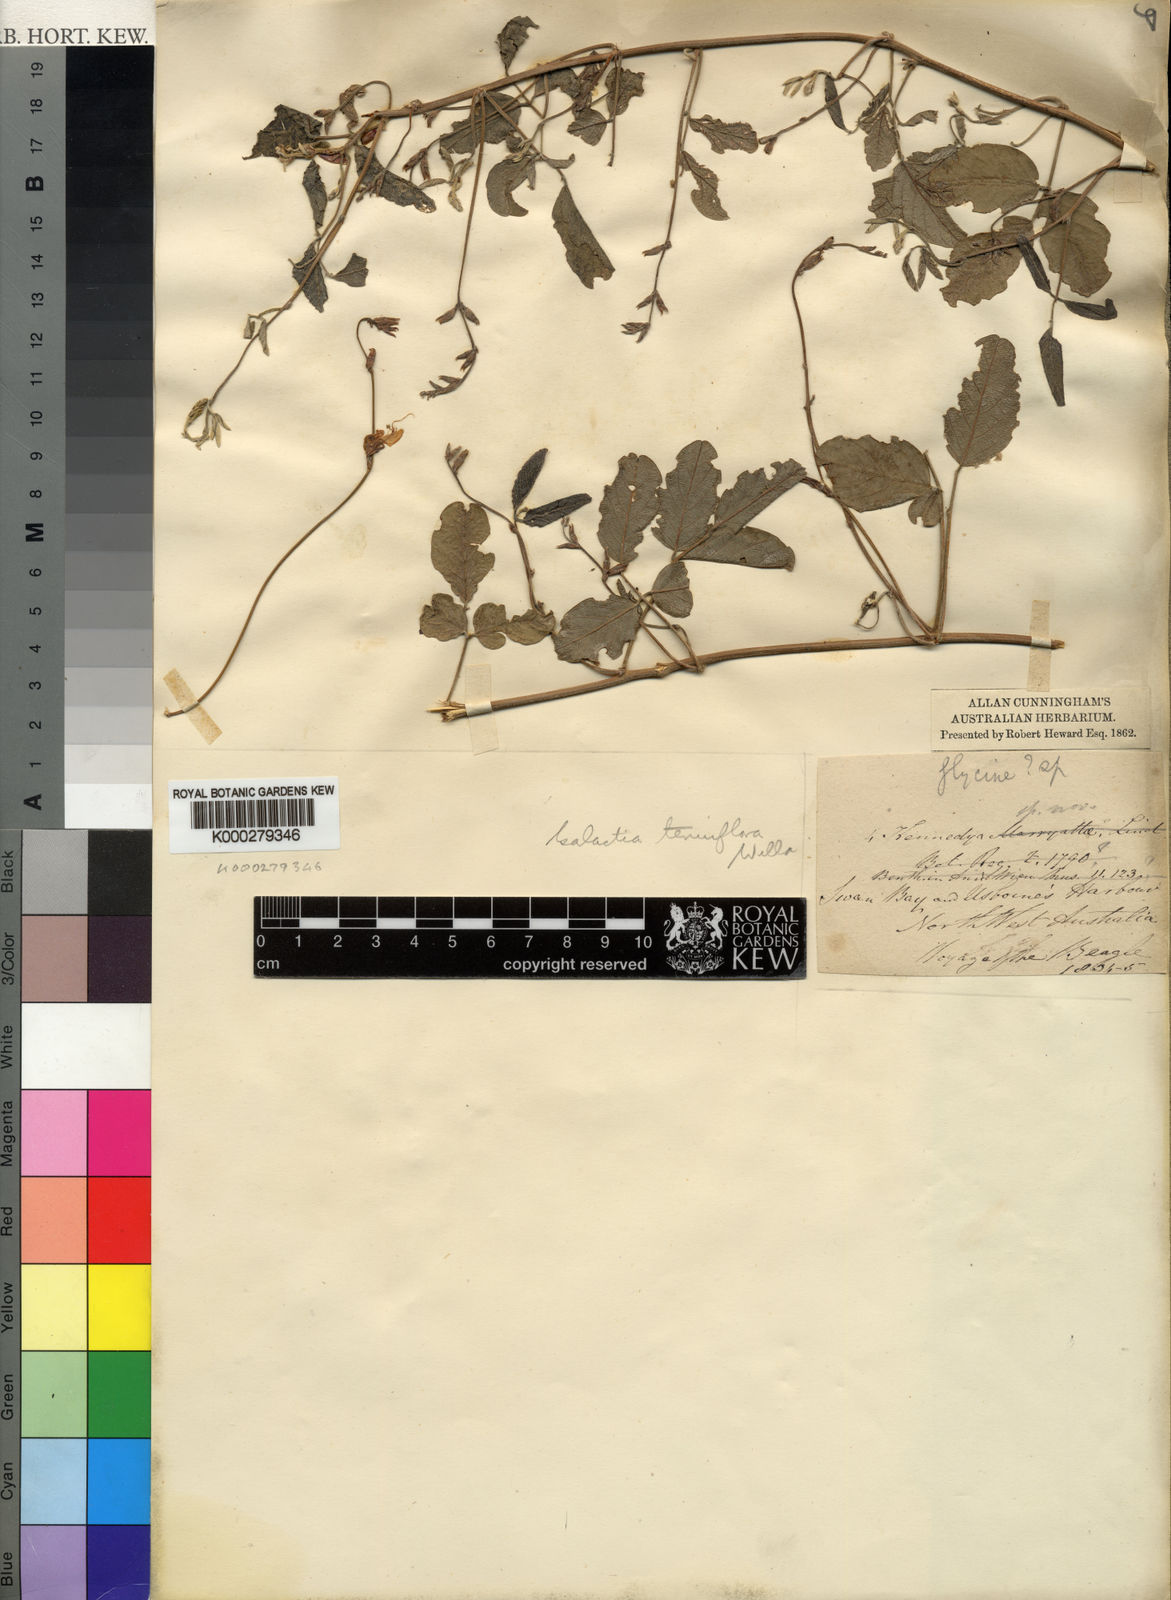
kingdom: Plantae
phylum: Tracheophyta
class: Magnoliopsida
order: Fabales
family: Fabaceae
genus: Galactia
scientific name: Galactia striata
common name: Florida hammock milkpea
